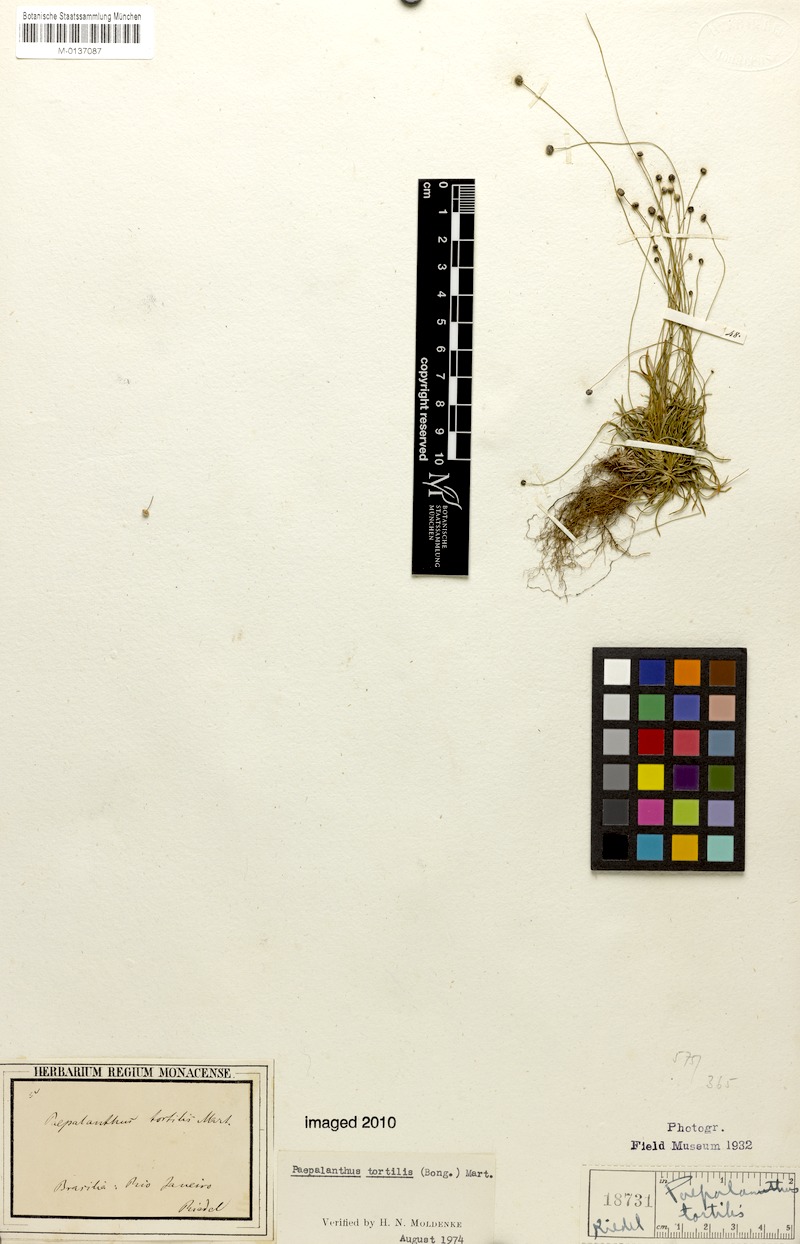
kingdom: Plantae
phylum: Tracheophyta
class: Liliopsida
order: Poales
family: Eriocaulaceae
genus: Paepalanthus
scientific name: Paepalanthus tortilis
